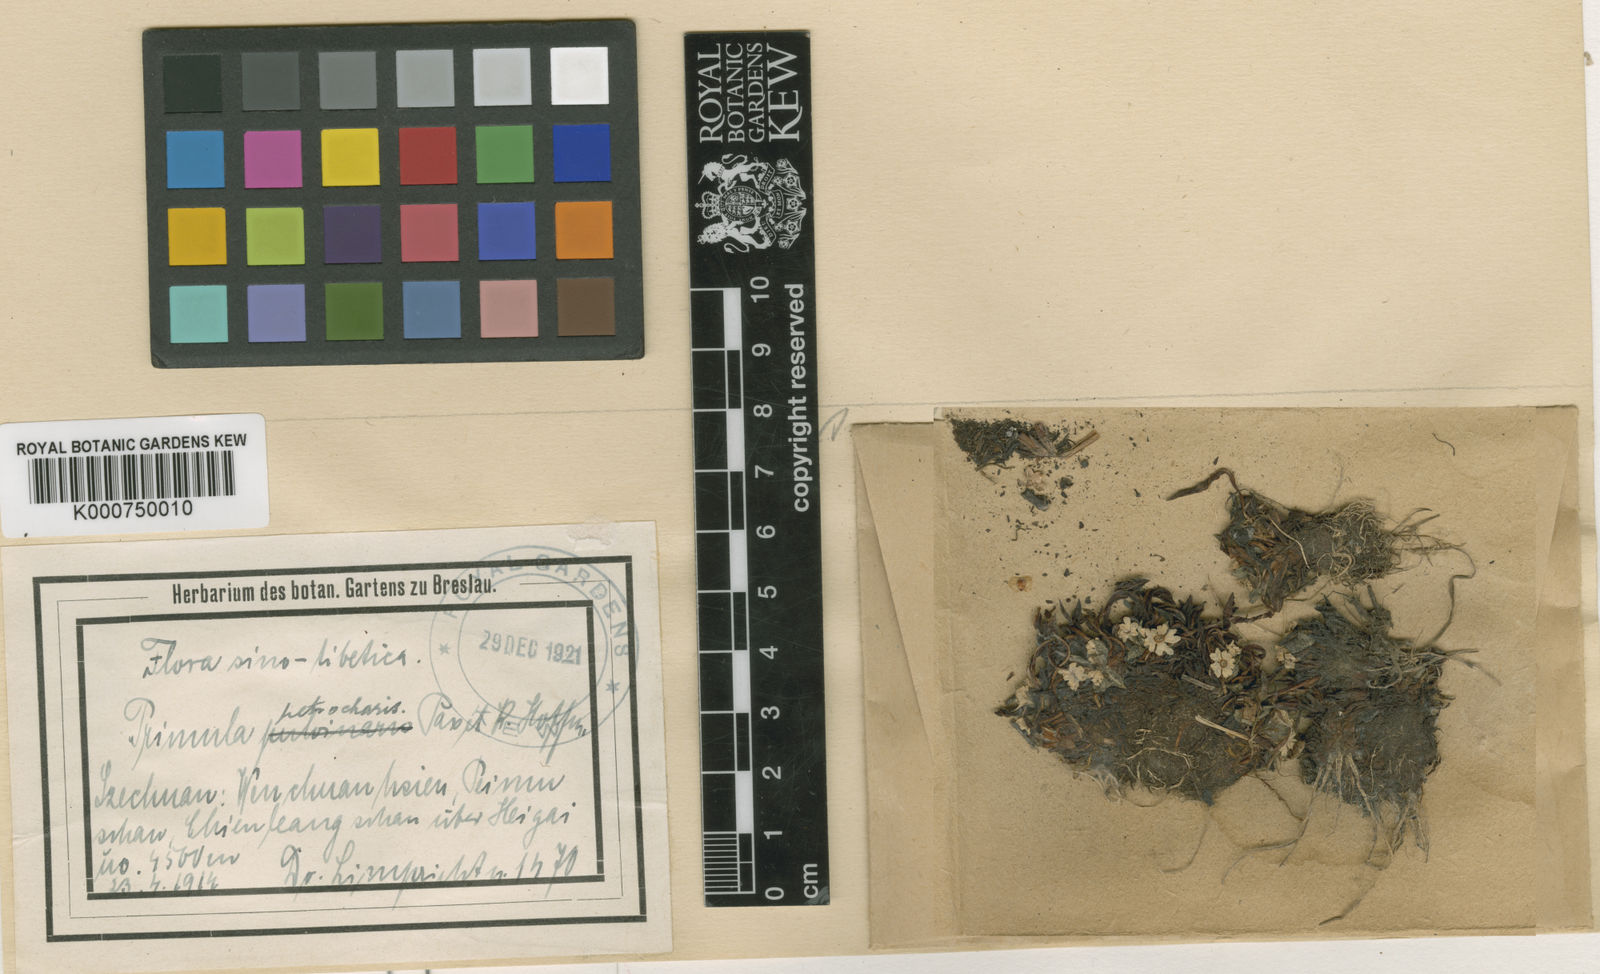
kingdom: Plantae
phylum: Tracheophyta
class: Magnoliopsida
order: Ericales
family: Primulaceae
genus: Primula
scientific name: Primula walshii
